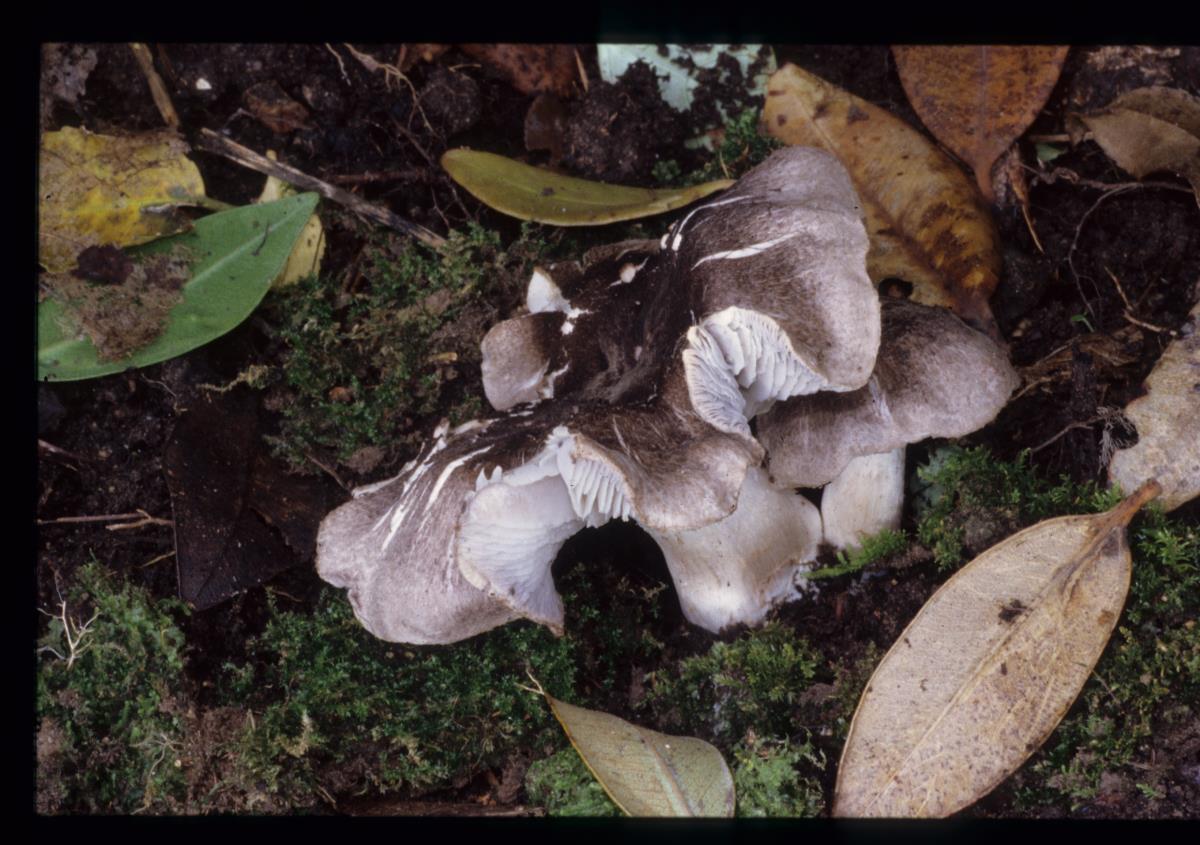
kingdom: Fungi
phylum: Basidiomycota
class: Agaricomycetes
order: Agaricales
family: Tricholomataceae
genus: Tricholoma
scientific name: Tricholoma
